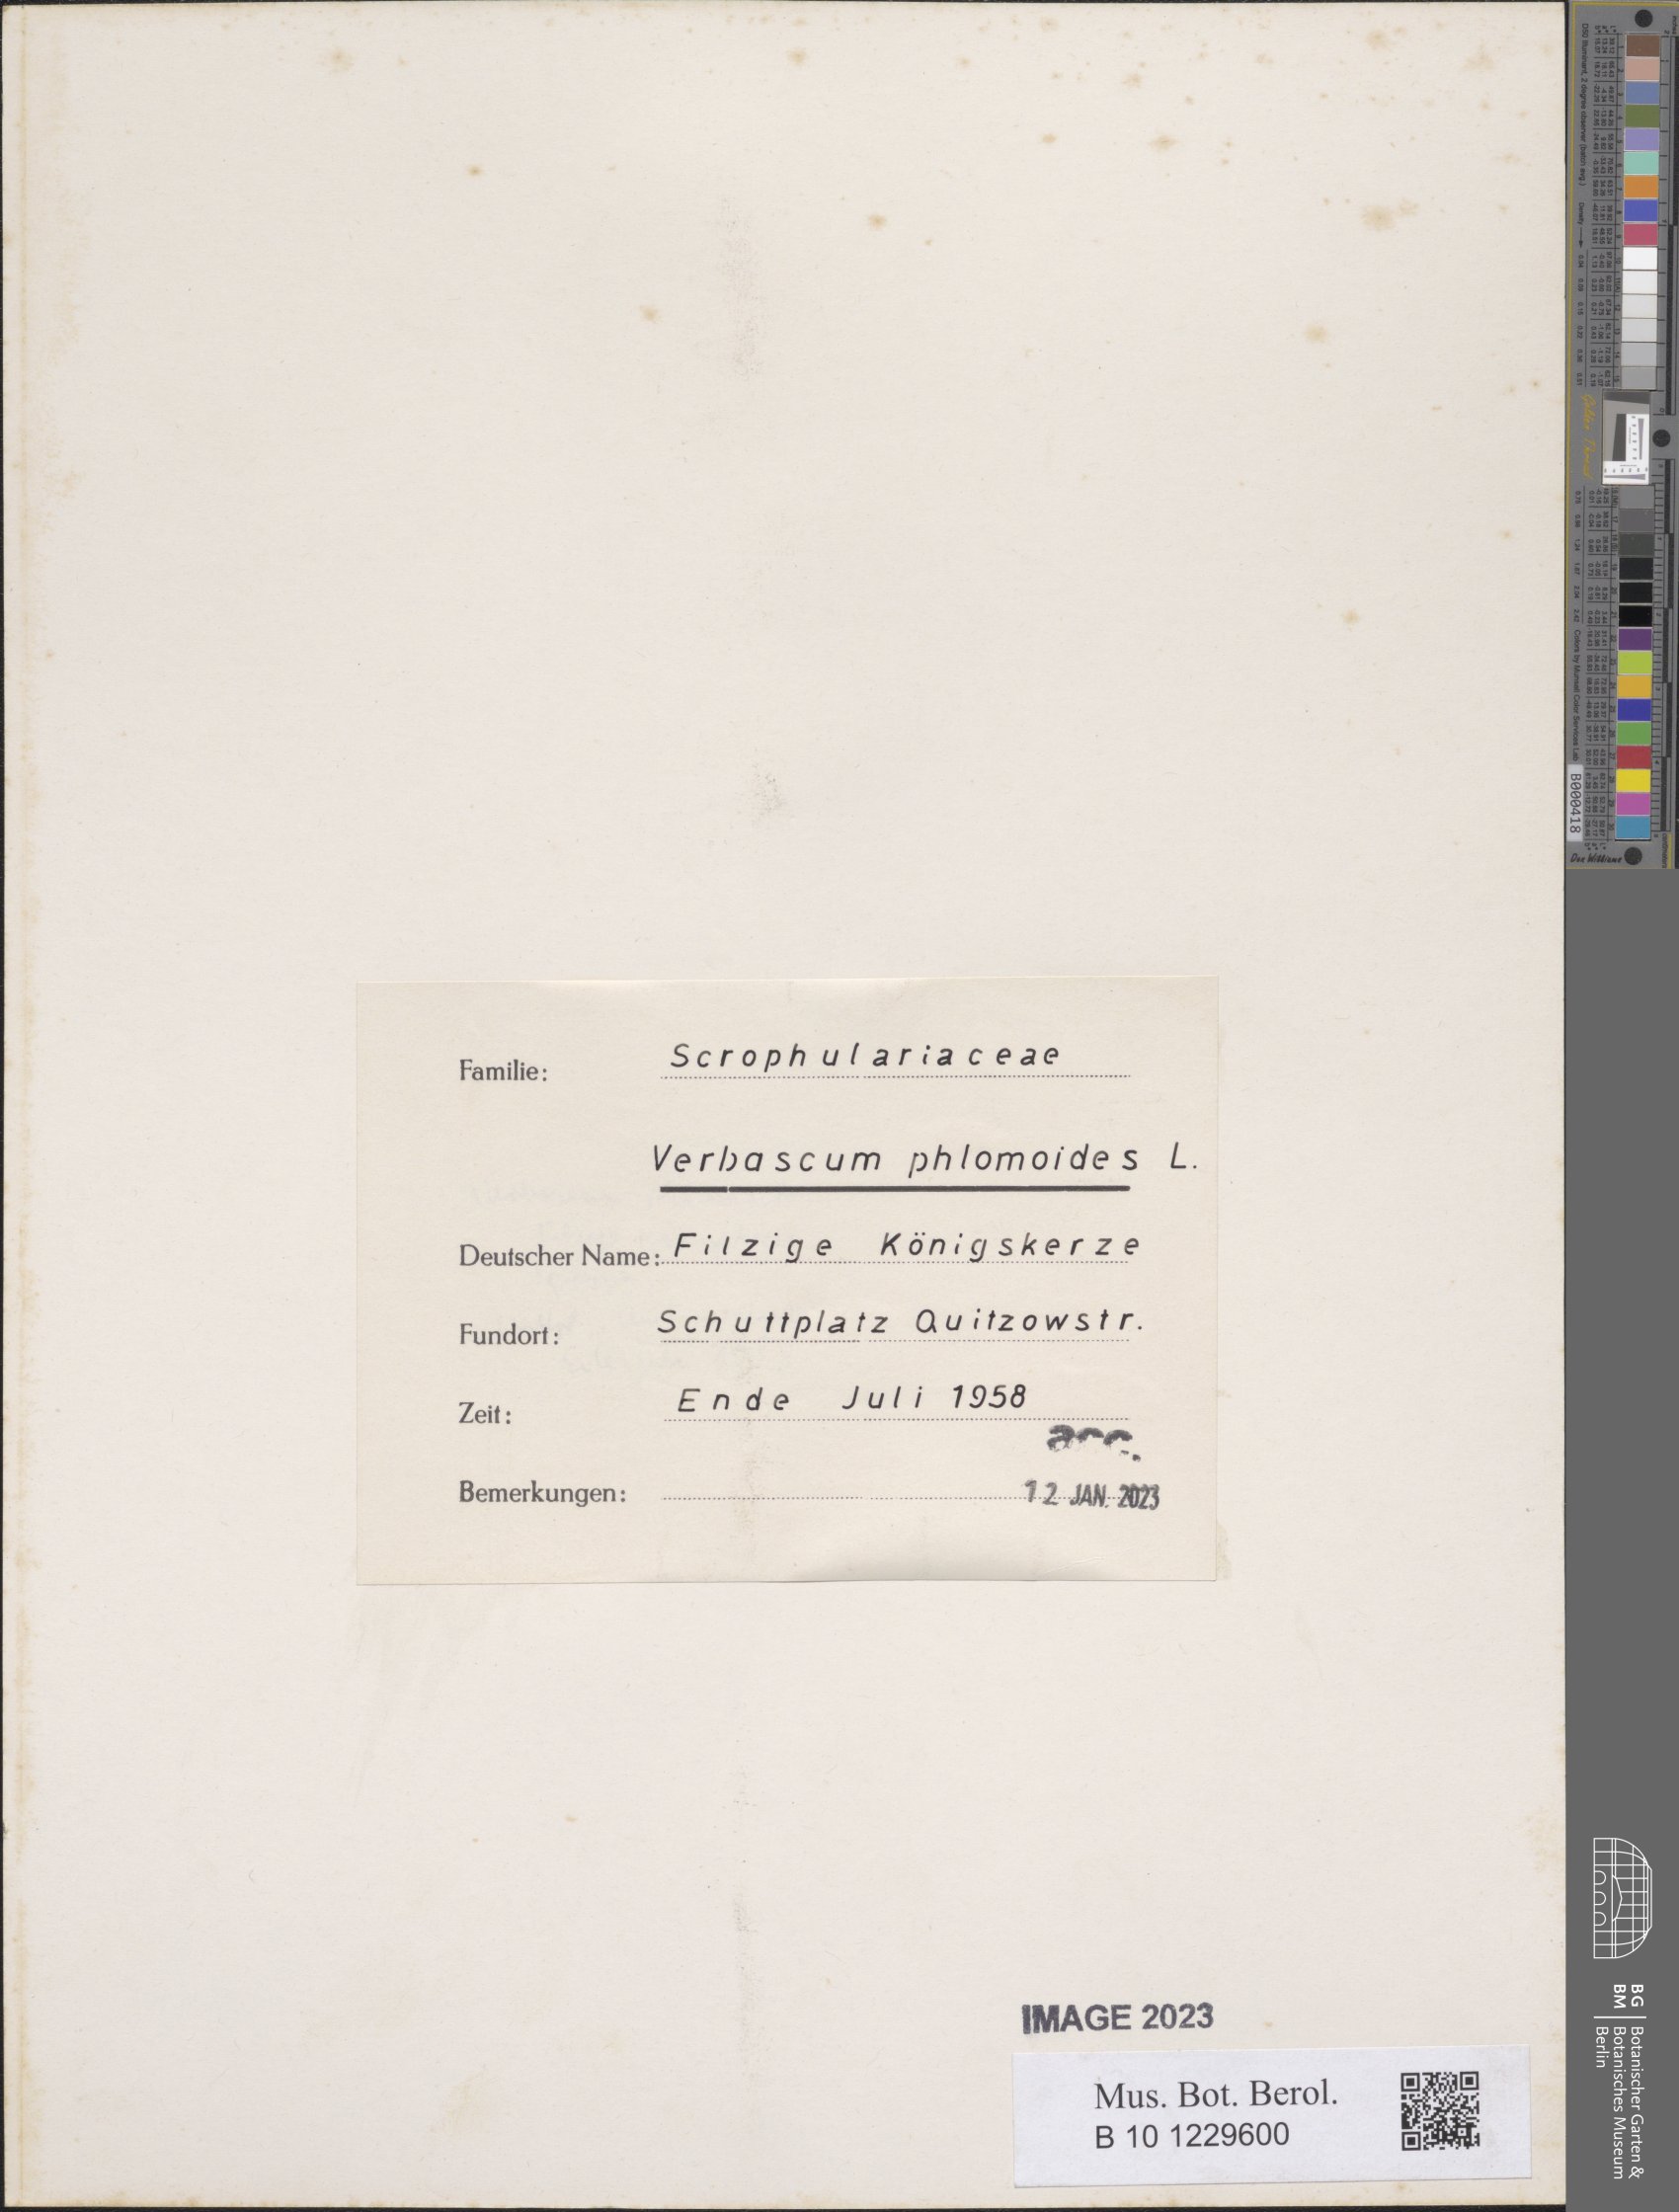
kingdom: Plantae
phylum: Tracheophyta
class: Magnoliopsida
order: Lamiales
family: Scrophulariaceae
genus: Verbascum
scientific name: Verbascum phlomoides
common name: Orange mullein
